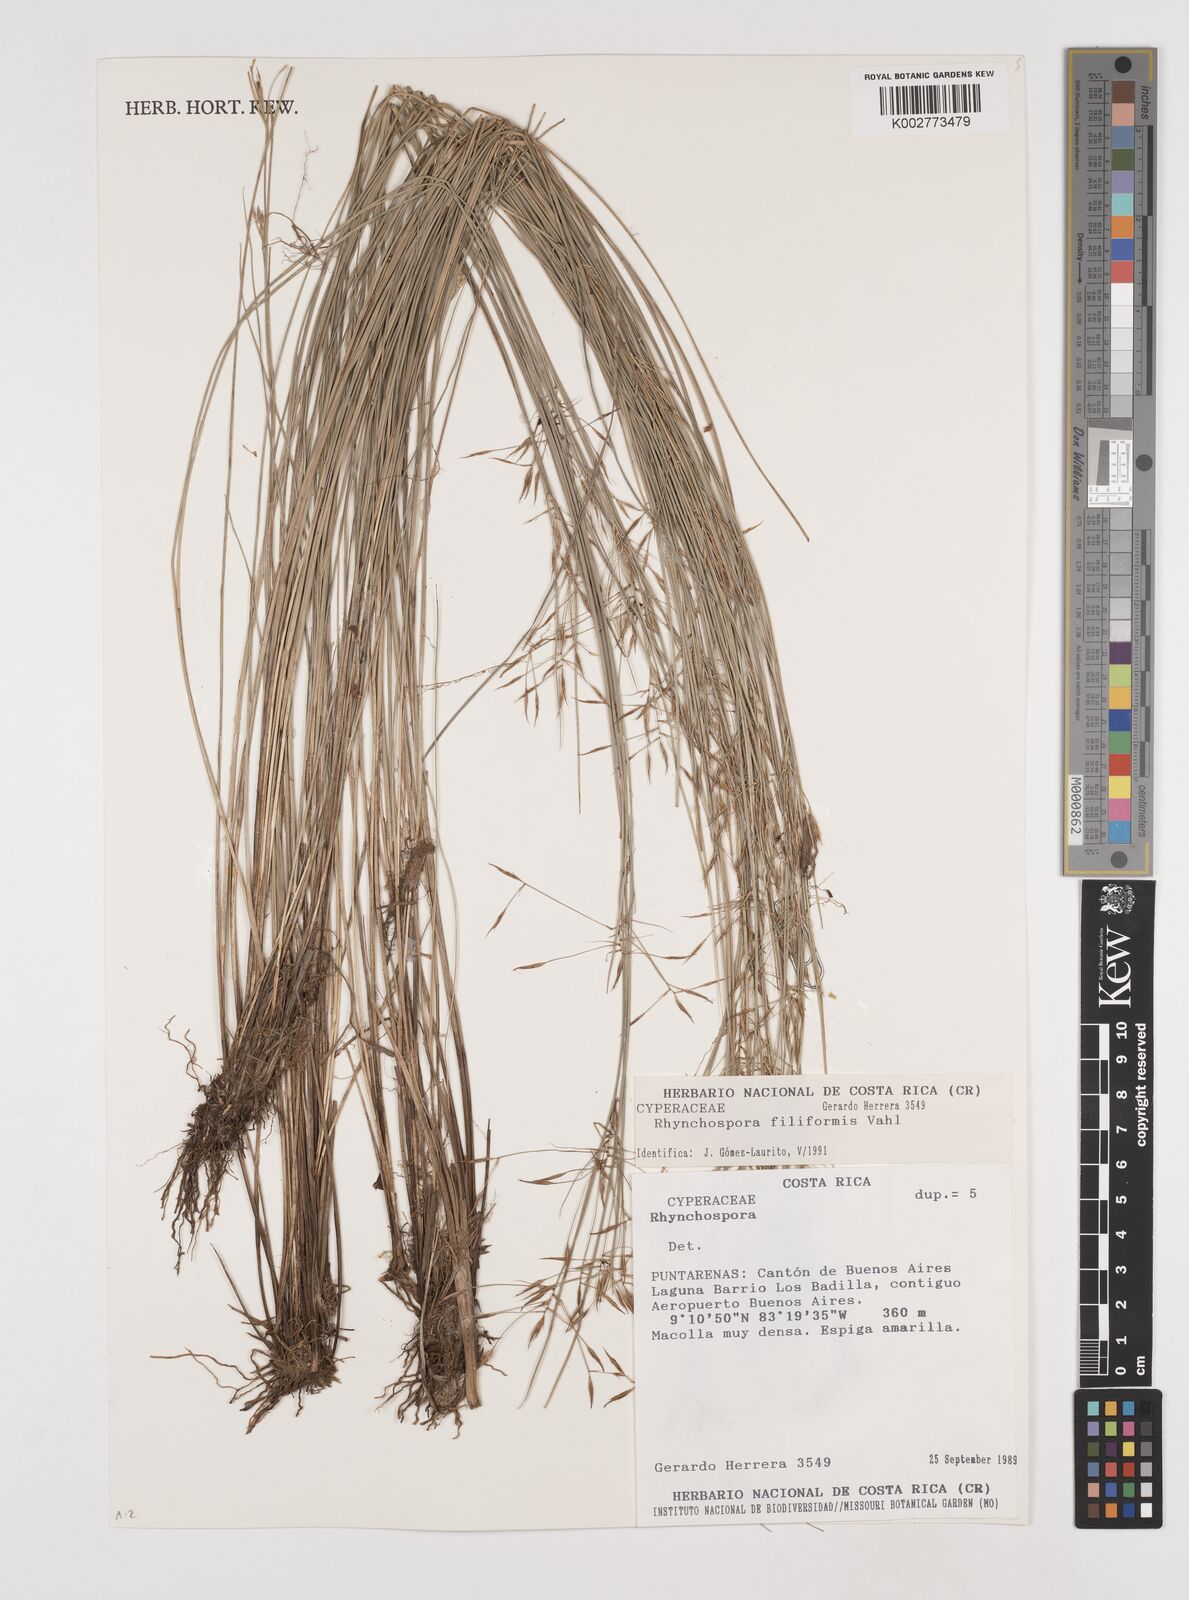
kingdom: Plantae
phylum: Tracheophyta
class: Liliopsida
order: Poales
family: Cyperaceae
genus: Rhynchospora
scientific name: Rhynchospora filiformis
